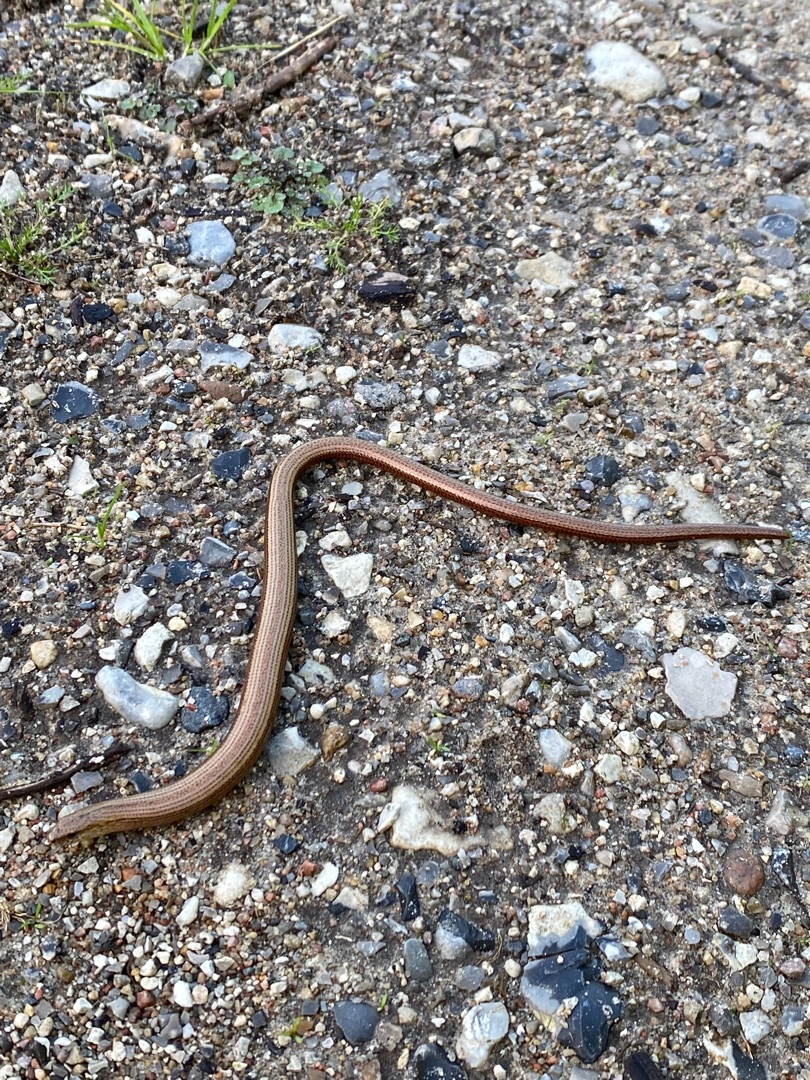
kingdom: Animalia
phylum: Chordata
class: Squamata
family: Anguidae
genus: Anguis
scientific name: Anguis fragilis
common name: Stålorm
